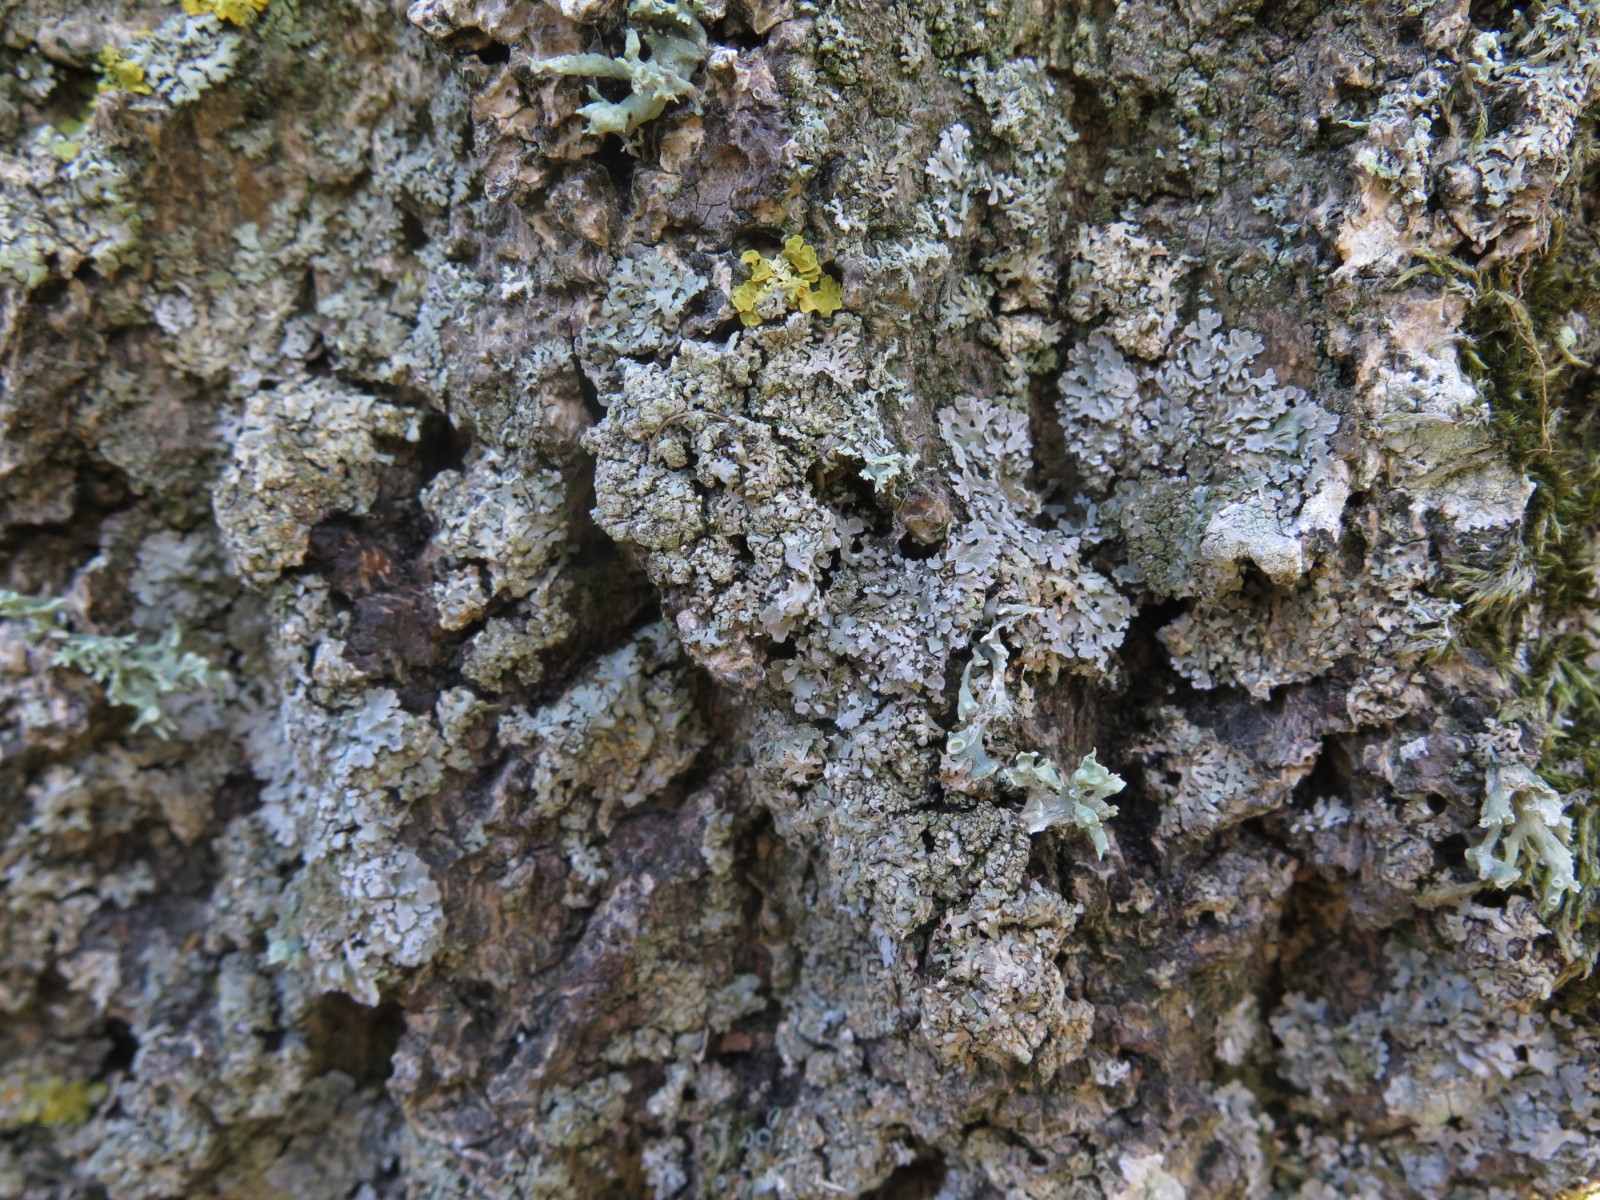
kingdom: Fungi
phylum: Ascomycota
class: Lecanoromycetes
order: Caliciales
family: Physciaceae
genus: Poeltonia
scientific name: Poeltonia grisea
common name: hvidgrå dugrosetlav
